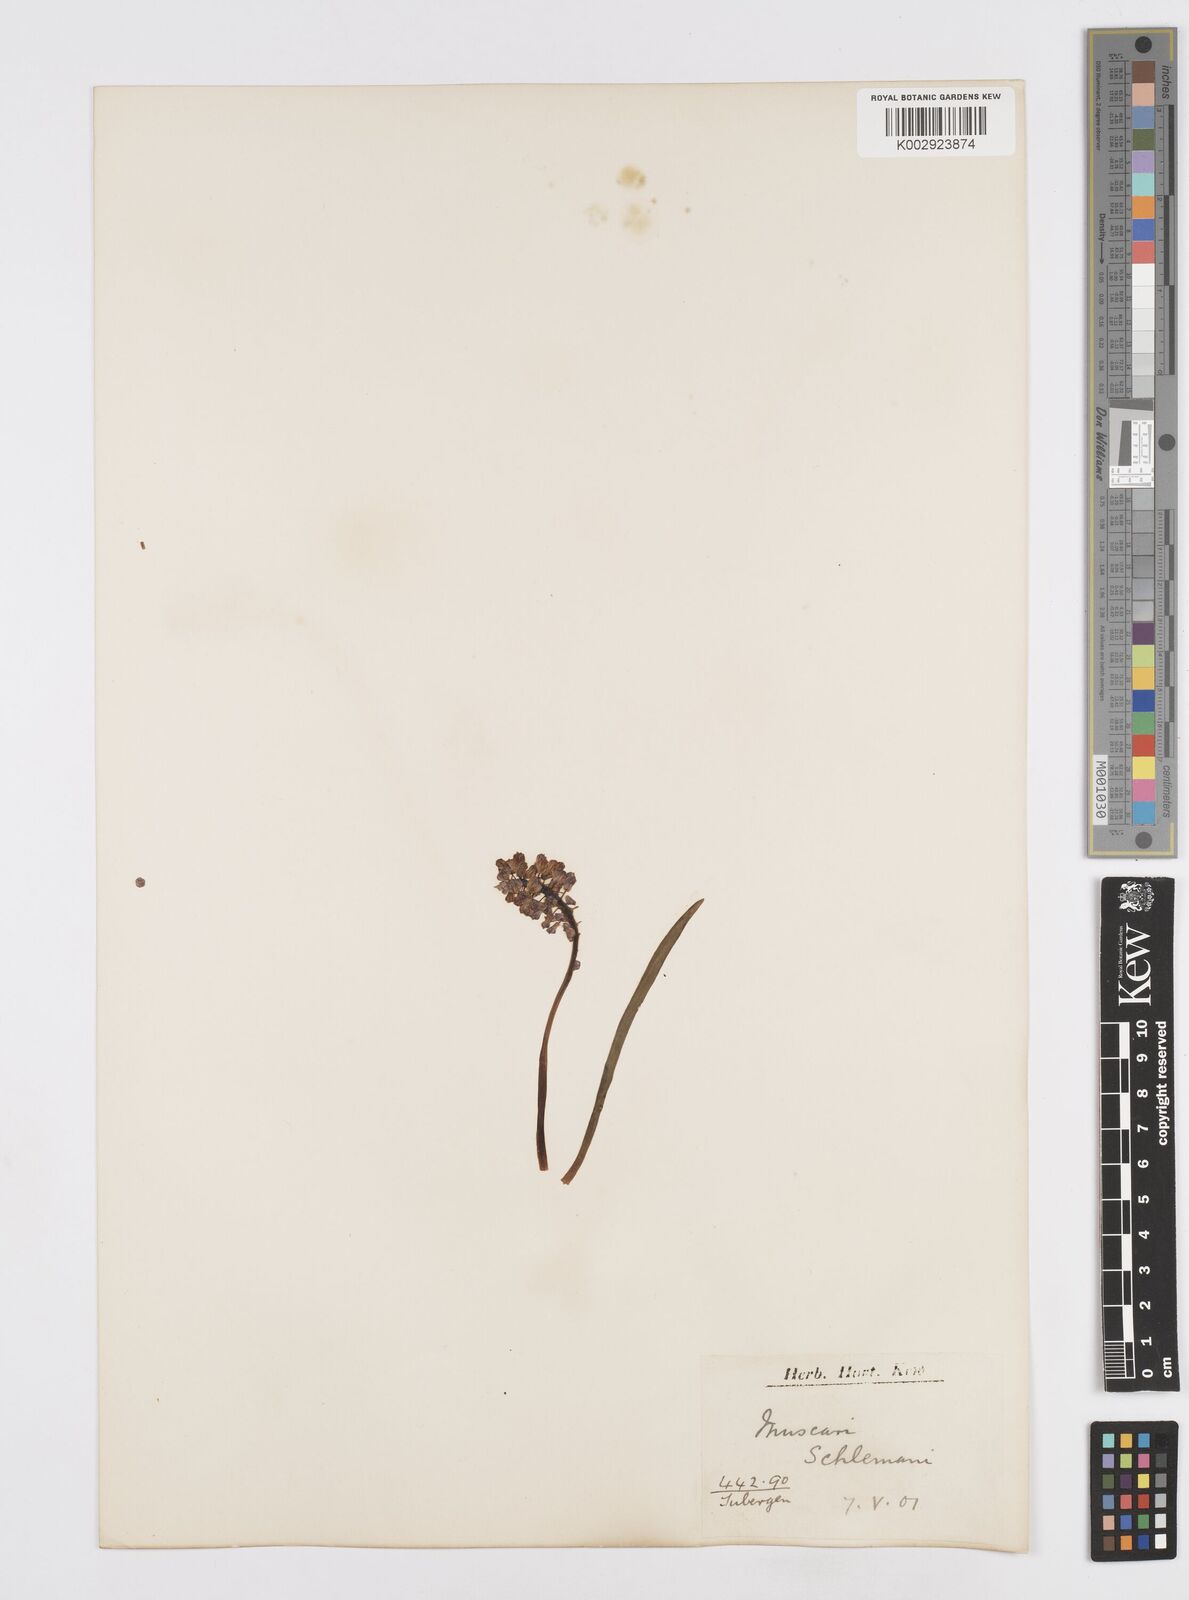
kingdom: Plantae
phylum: Tracheophyta
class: Liliopsida
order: Asparagales
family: Asparagaceae
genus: Muscari
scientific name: Muscari
